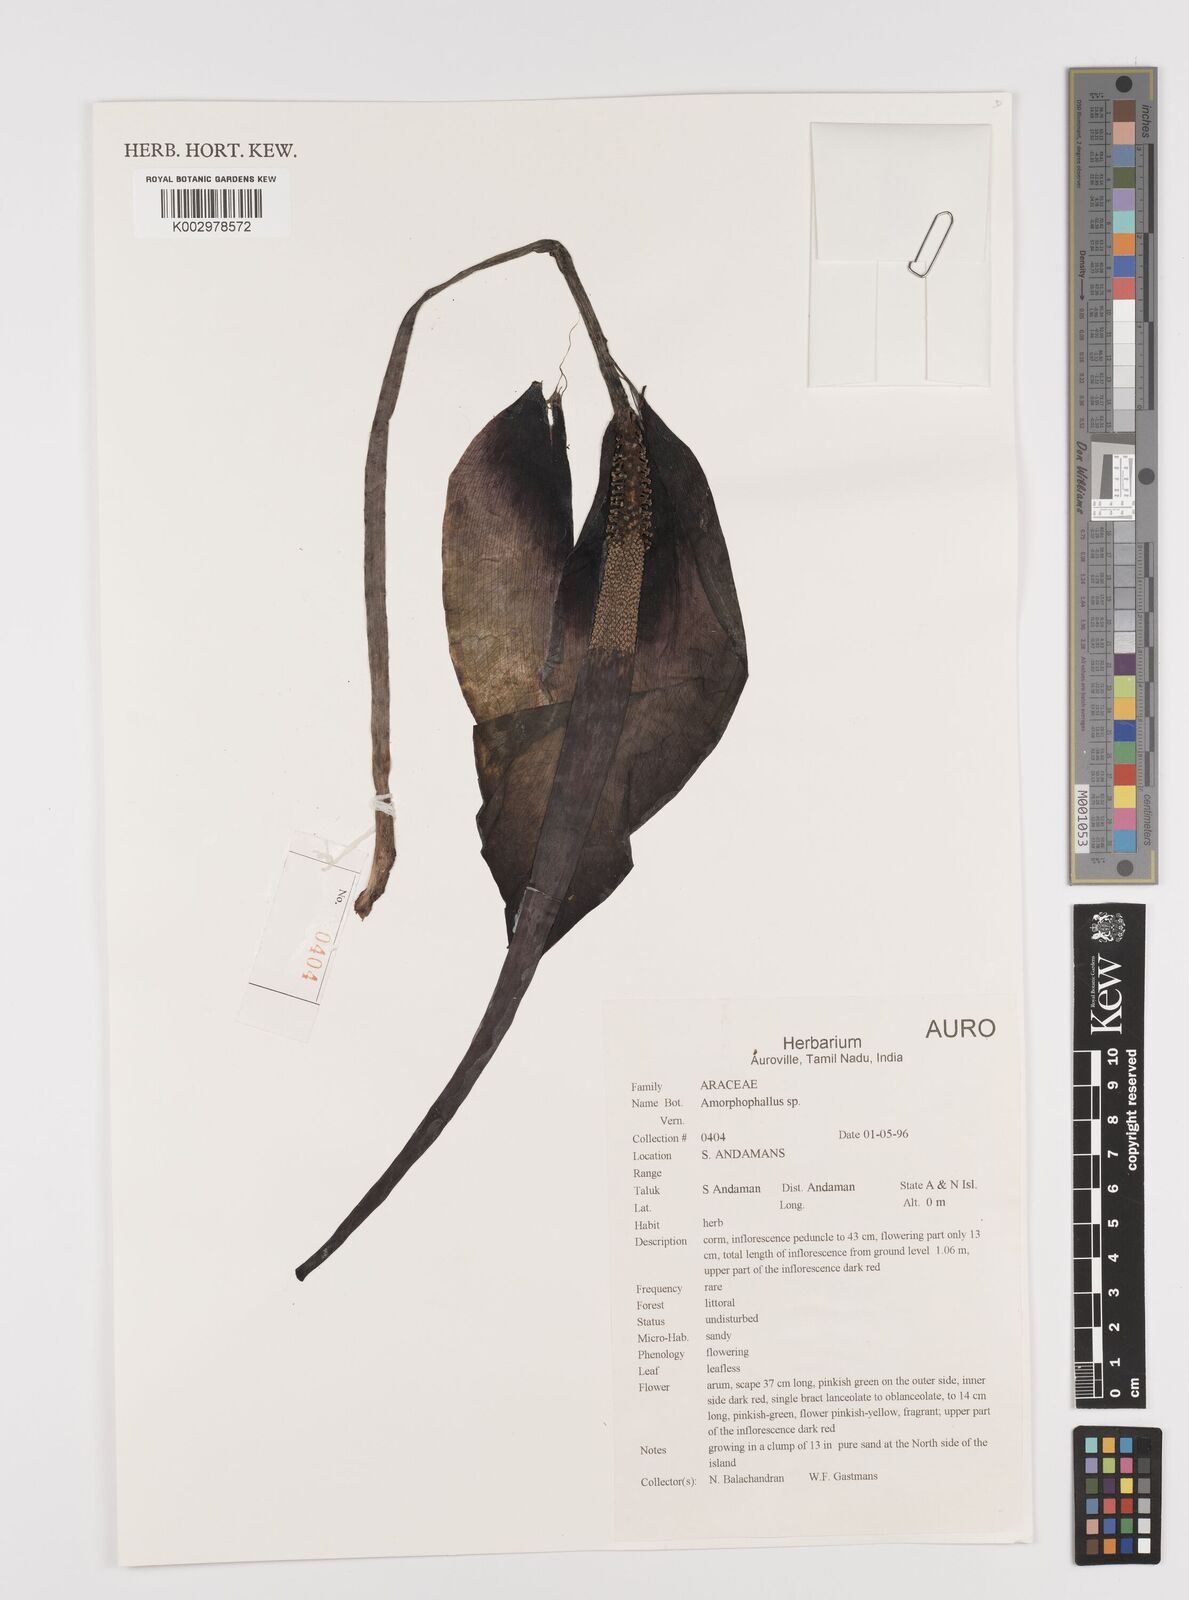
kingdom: Plantae
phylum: Tracheophyta
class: Liliopsida
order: Alismatales
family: Araceae
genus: Amorphophallus
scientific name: Amorphophallus
